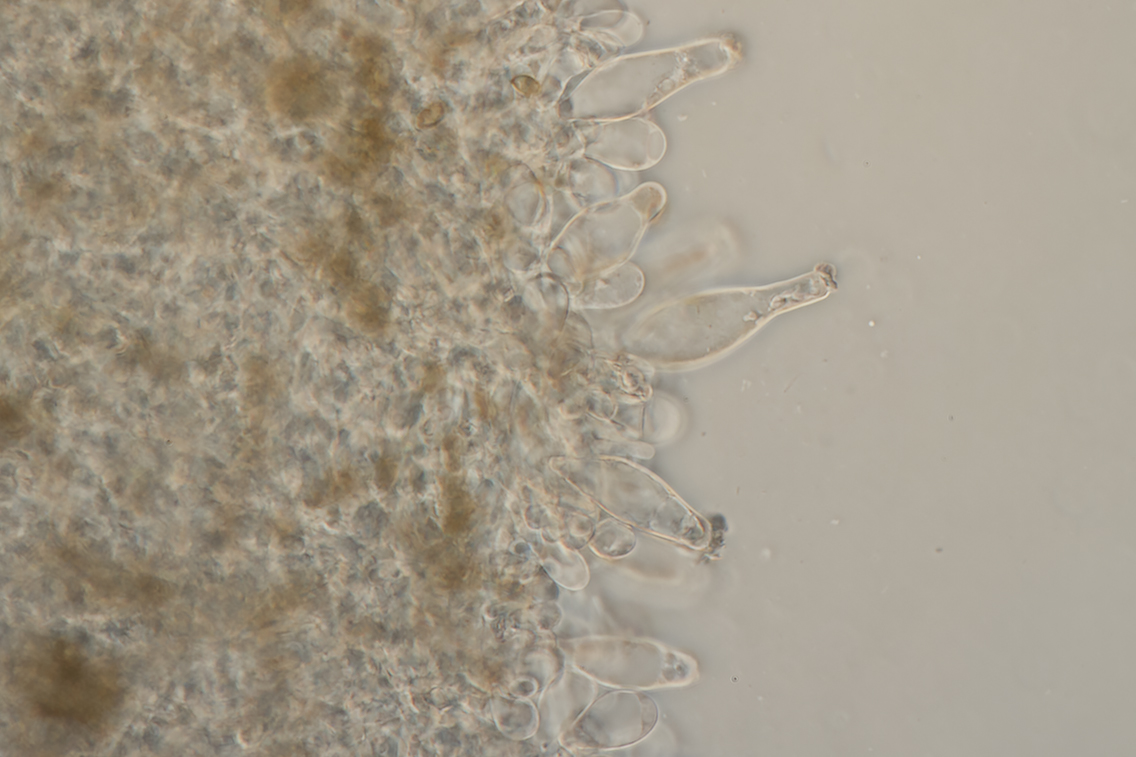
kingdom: Fungi
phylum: Basidiomycota
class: Agaricomycetes
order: Agaricales
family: Inocybaceae
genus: Inocybe
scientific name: Inocybe
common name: almindelig trævlhat
